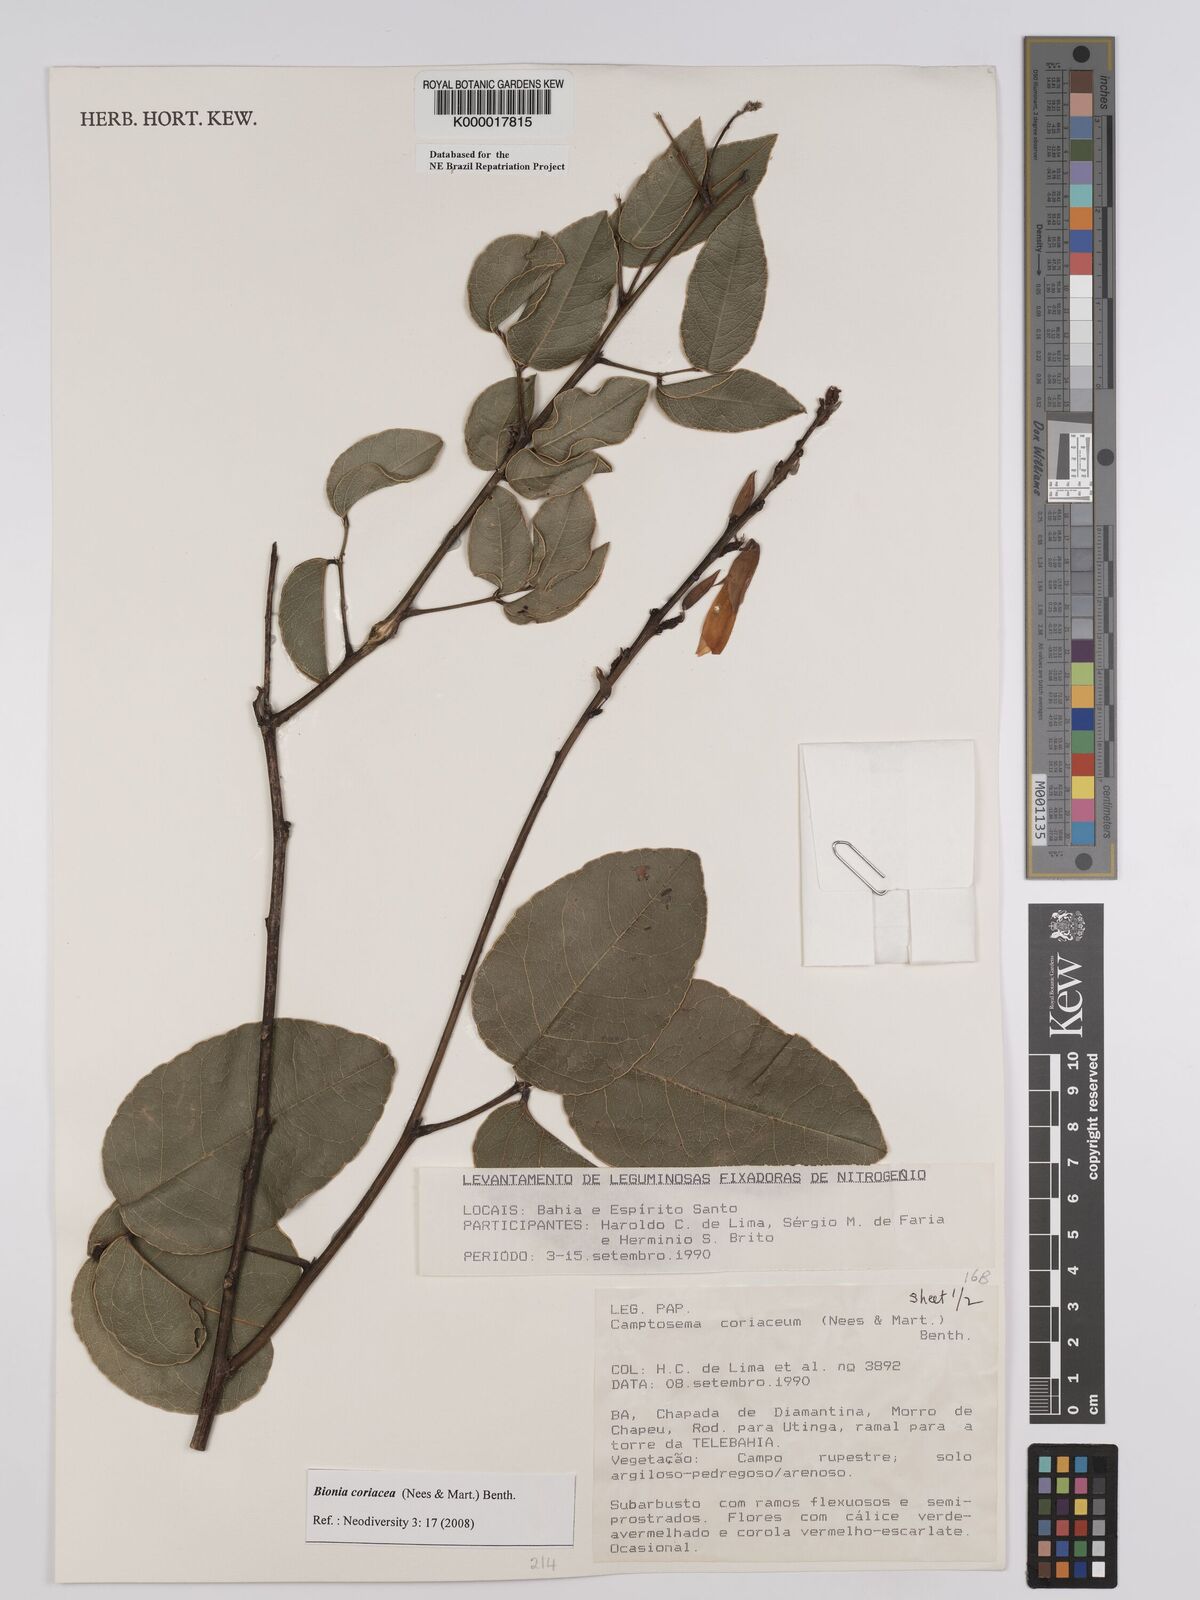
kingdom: Plantae
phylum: Tracheophyta
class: Magnoliopsida
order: Fabales
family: Fabaceae
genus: Camptosema
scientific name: Camptosema coriaceum
